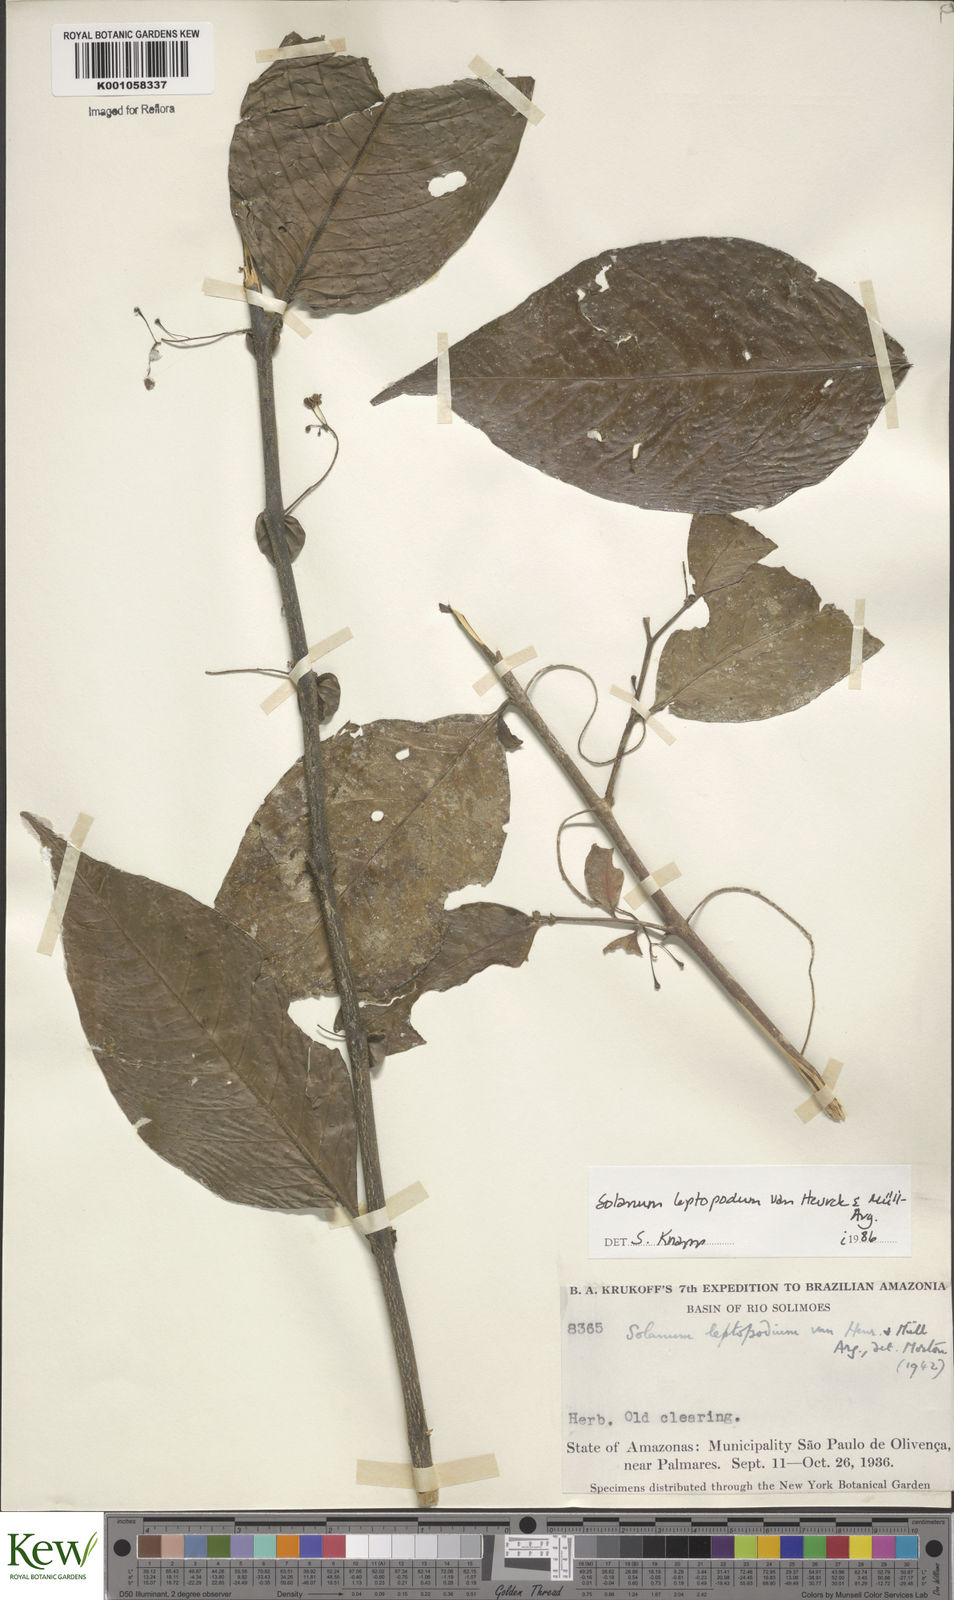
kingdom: Plantae
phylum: Tracheophyta
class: Magnoliopsida
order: Solanales
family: Solanaceae
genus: Solanum
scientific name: Solanum
